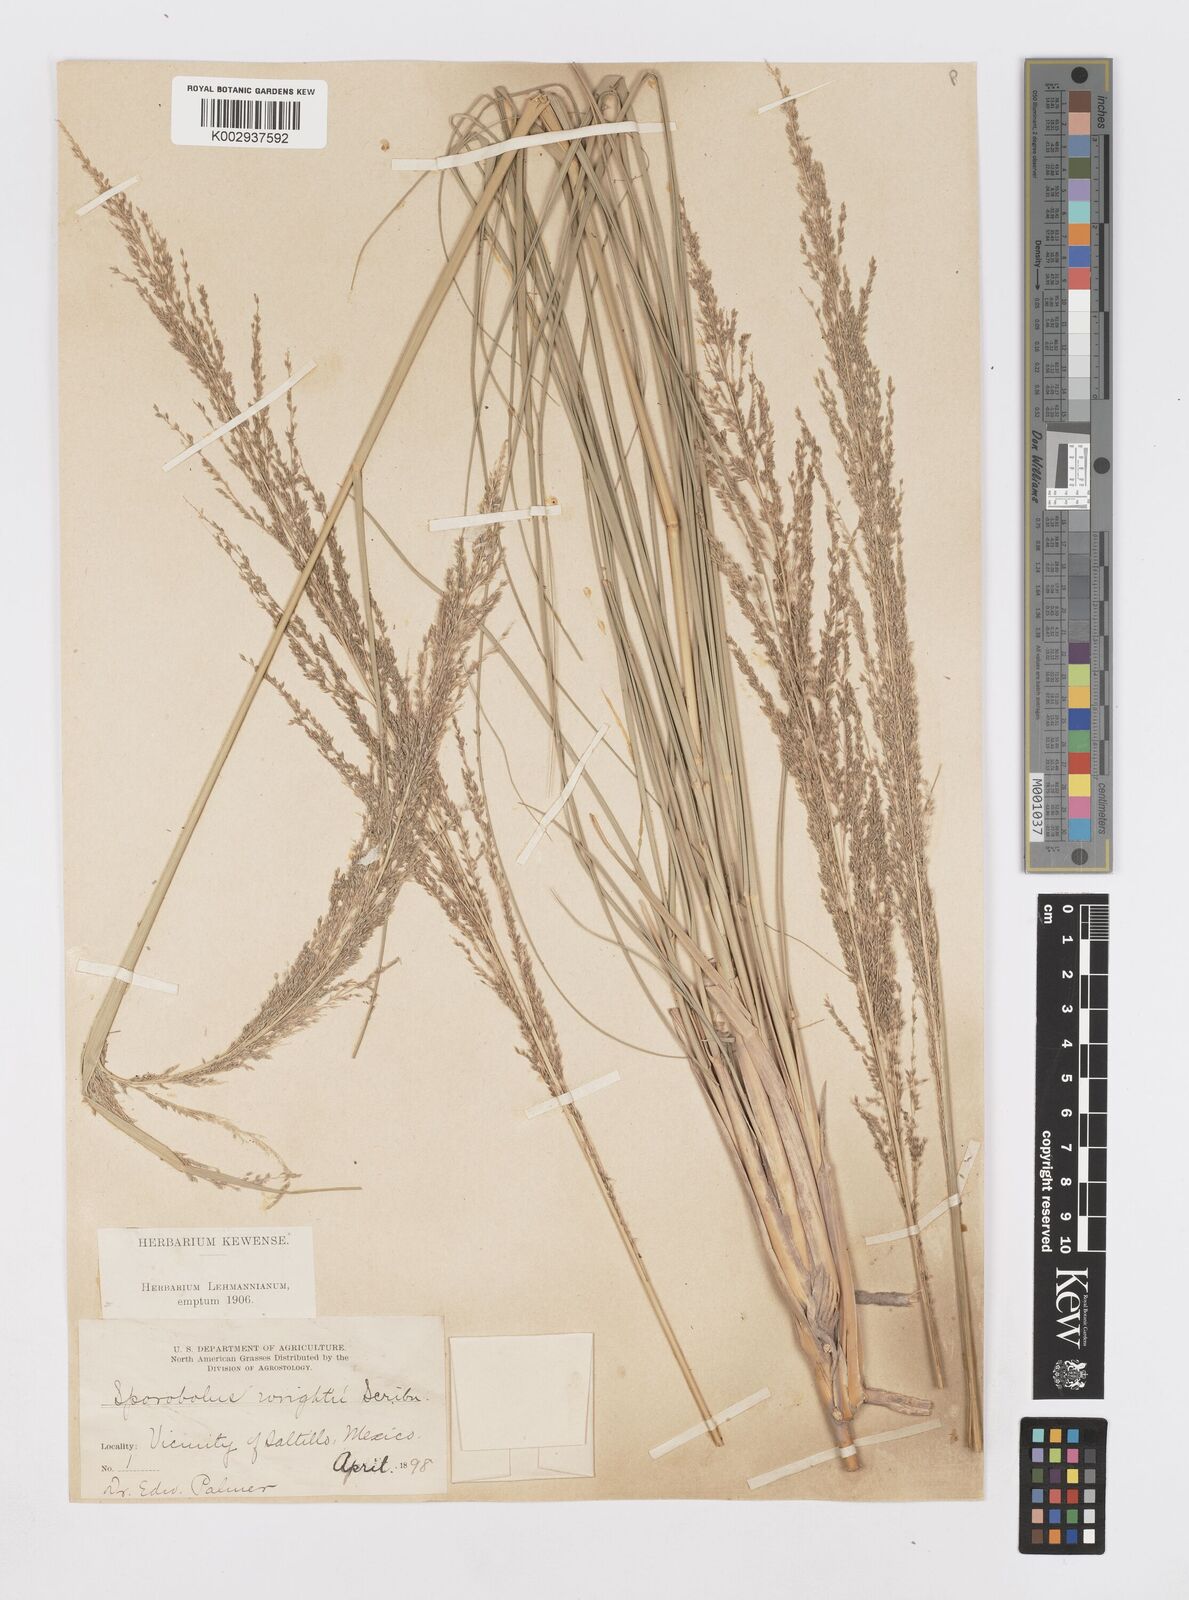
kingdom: Plantae
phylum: Tracheophyta
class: Liliopsida
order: Poales
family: Poaceae
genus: Sporobolus
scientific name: Sporobolus wrightii
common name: Big alkali sacaton
